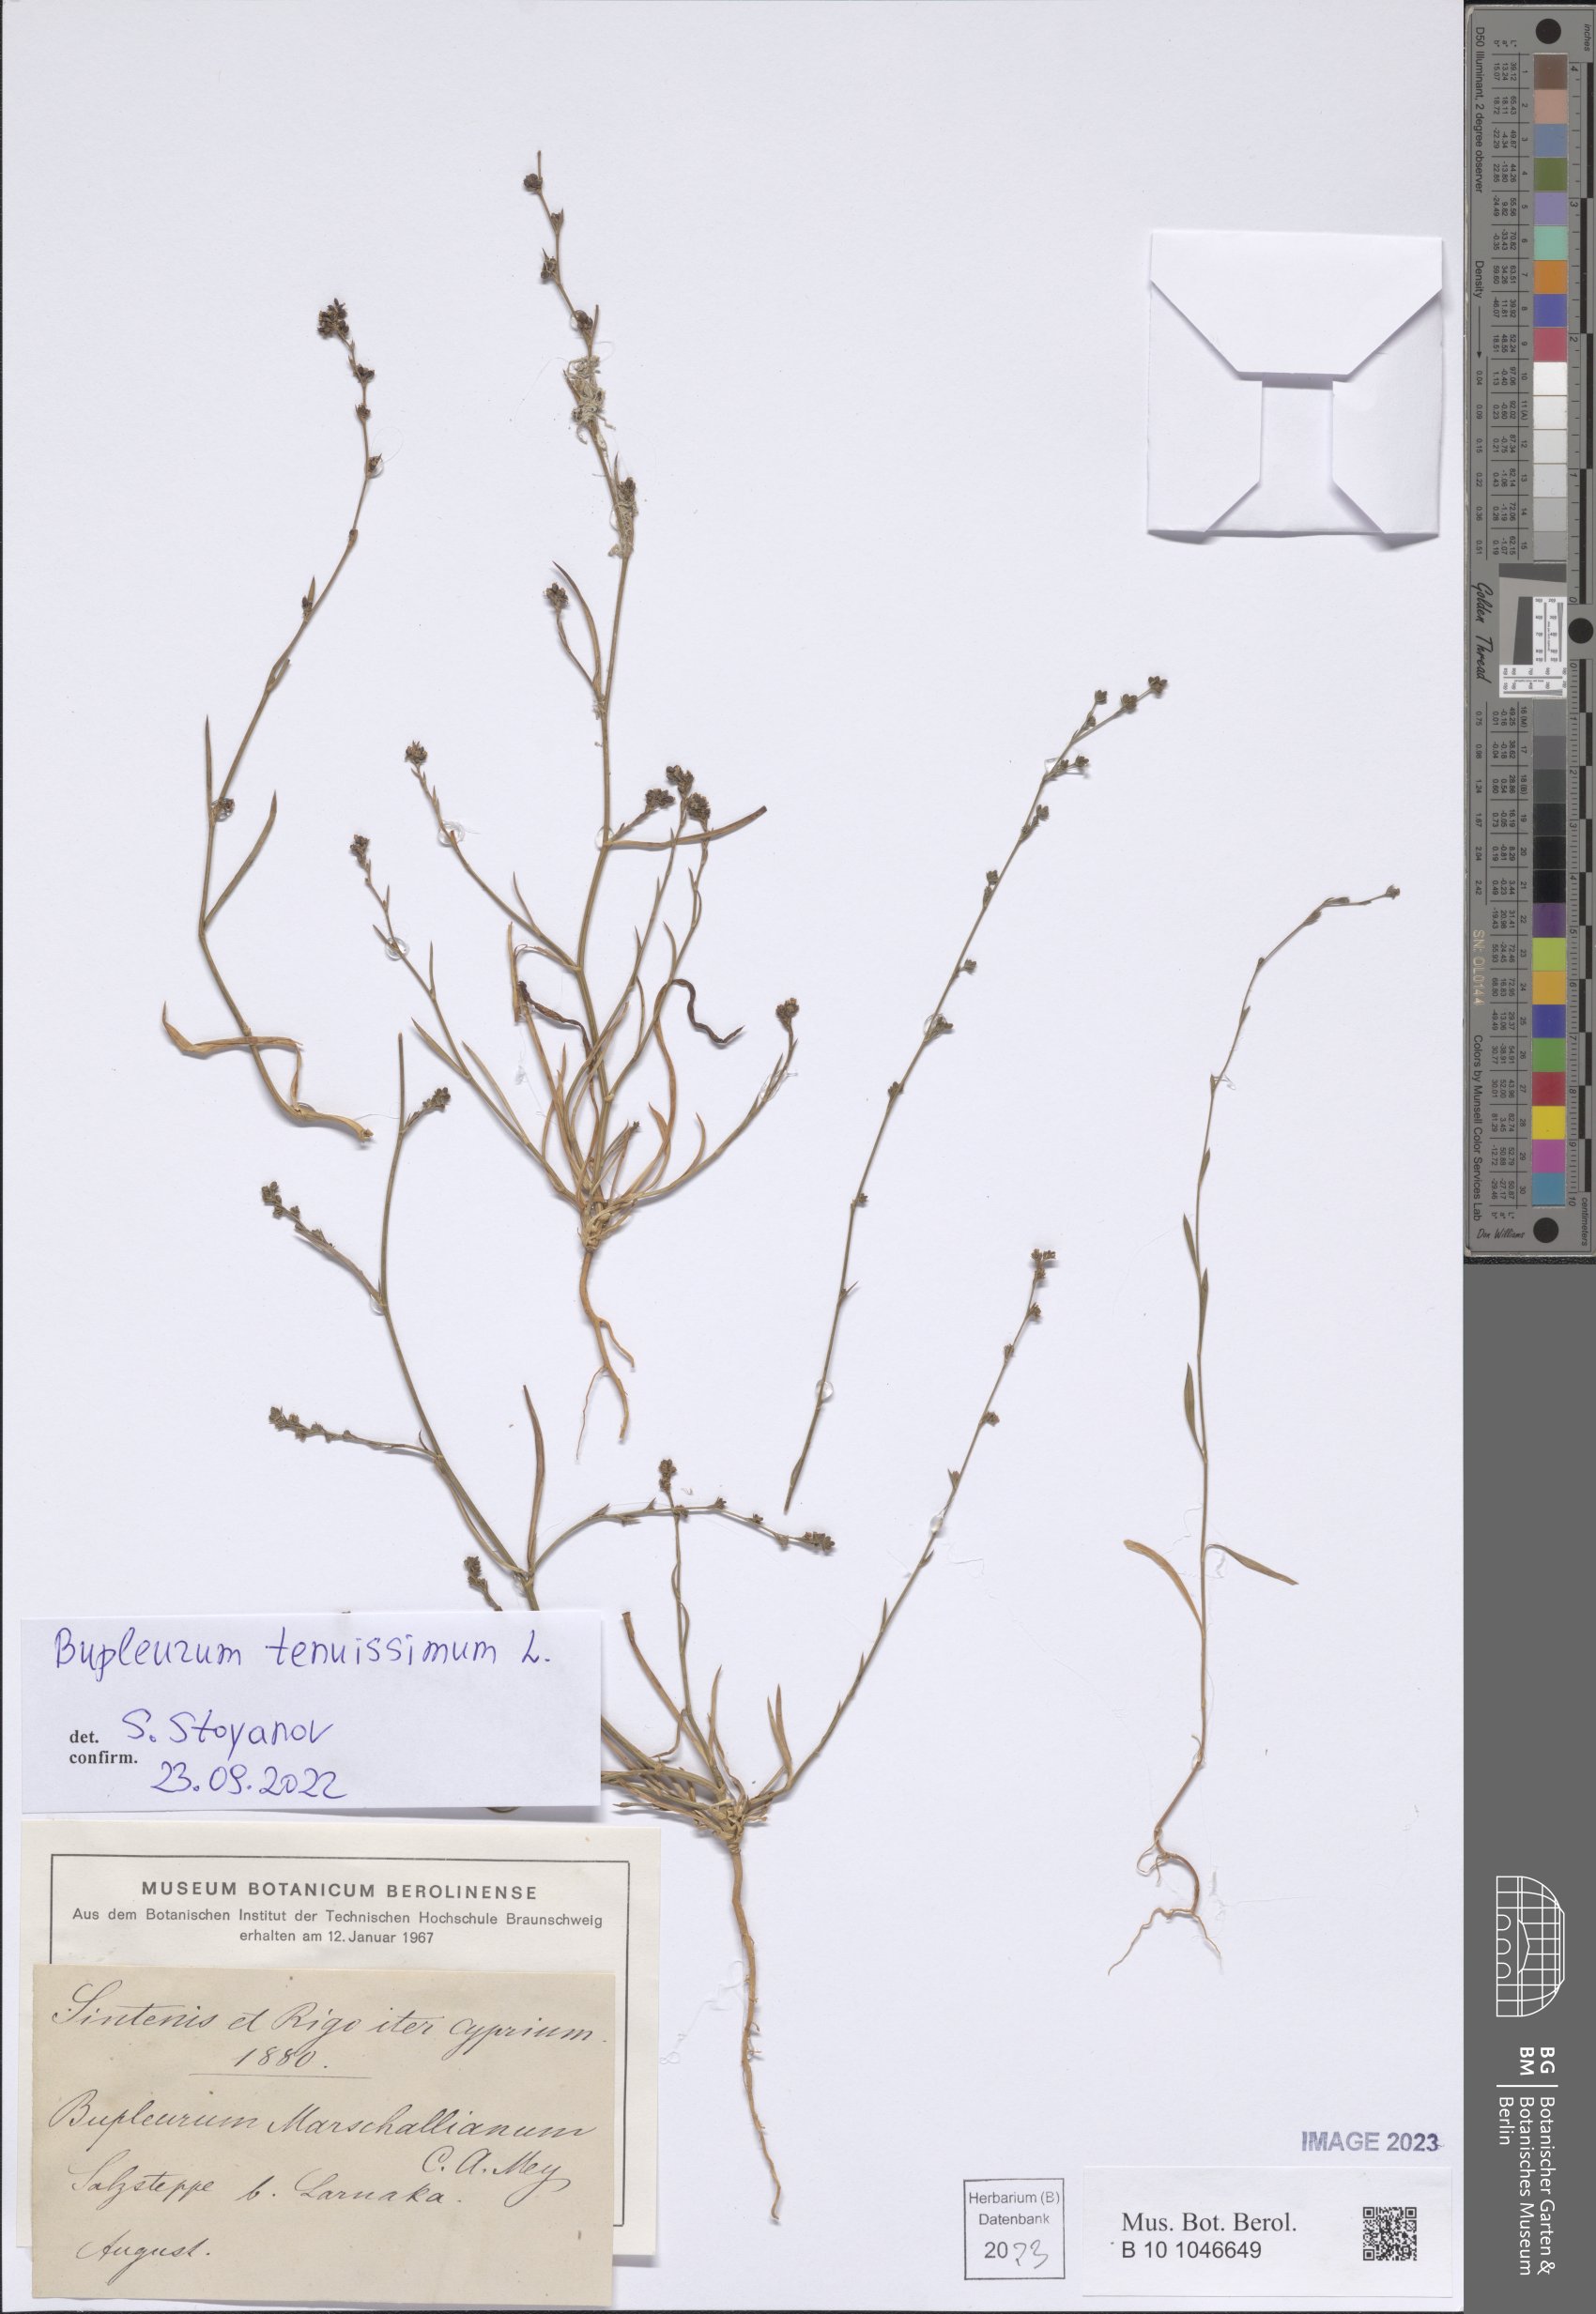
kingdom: Plantae
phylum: Tracheophyta
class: Magnoliopsida
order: Apiales
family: Apiaceae
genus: Bupleurum
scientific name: Bupleurum tenuissimum
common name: Slender hare's-ear
